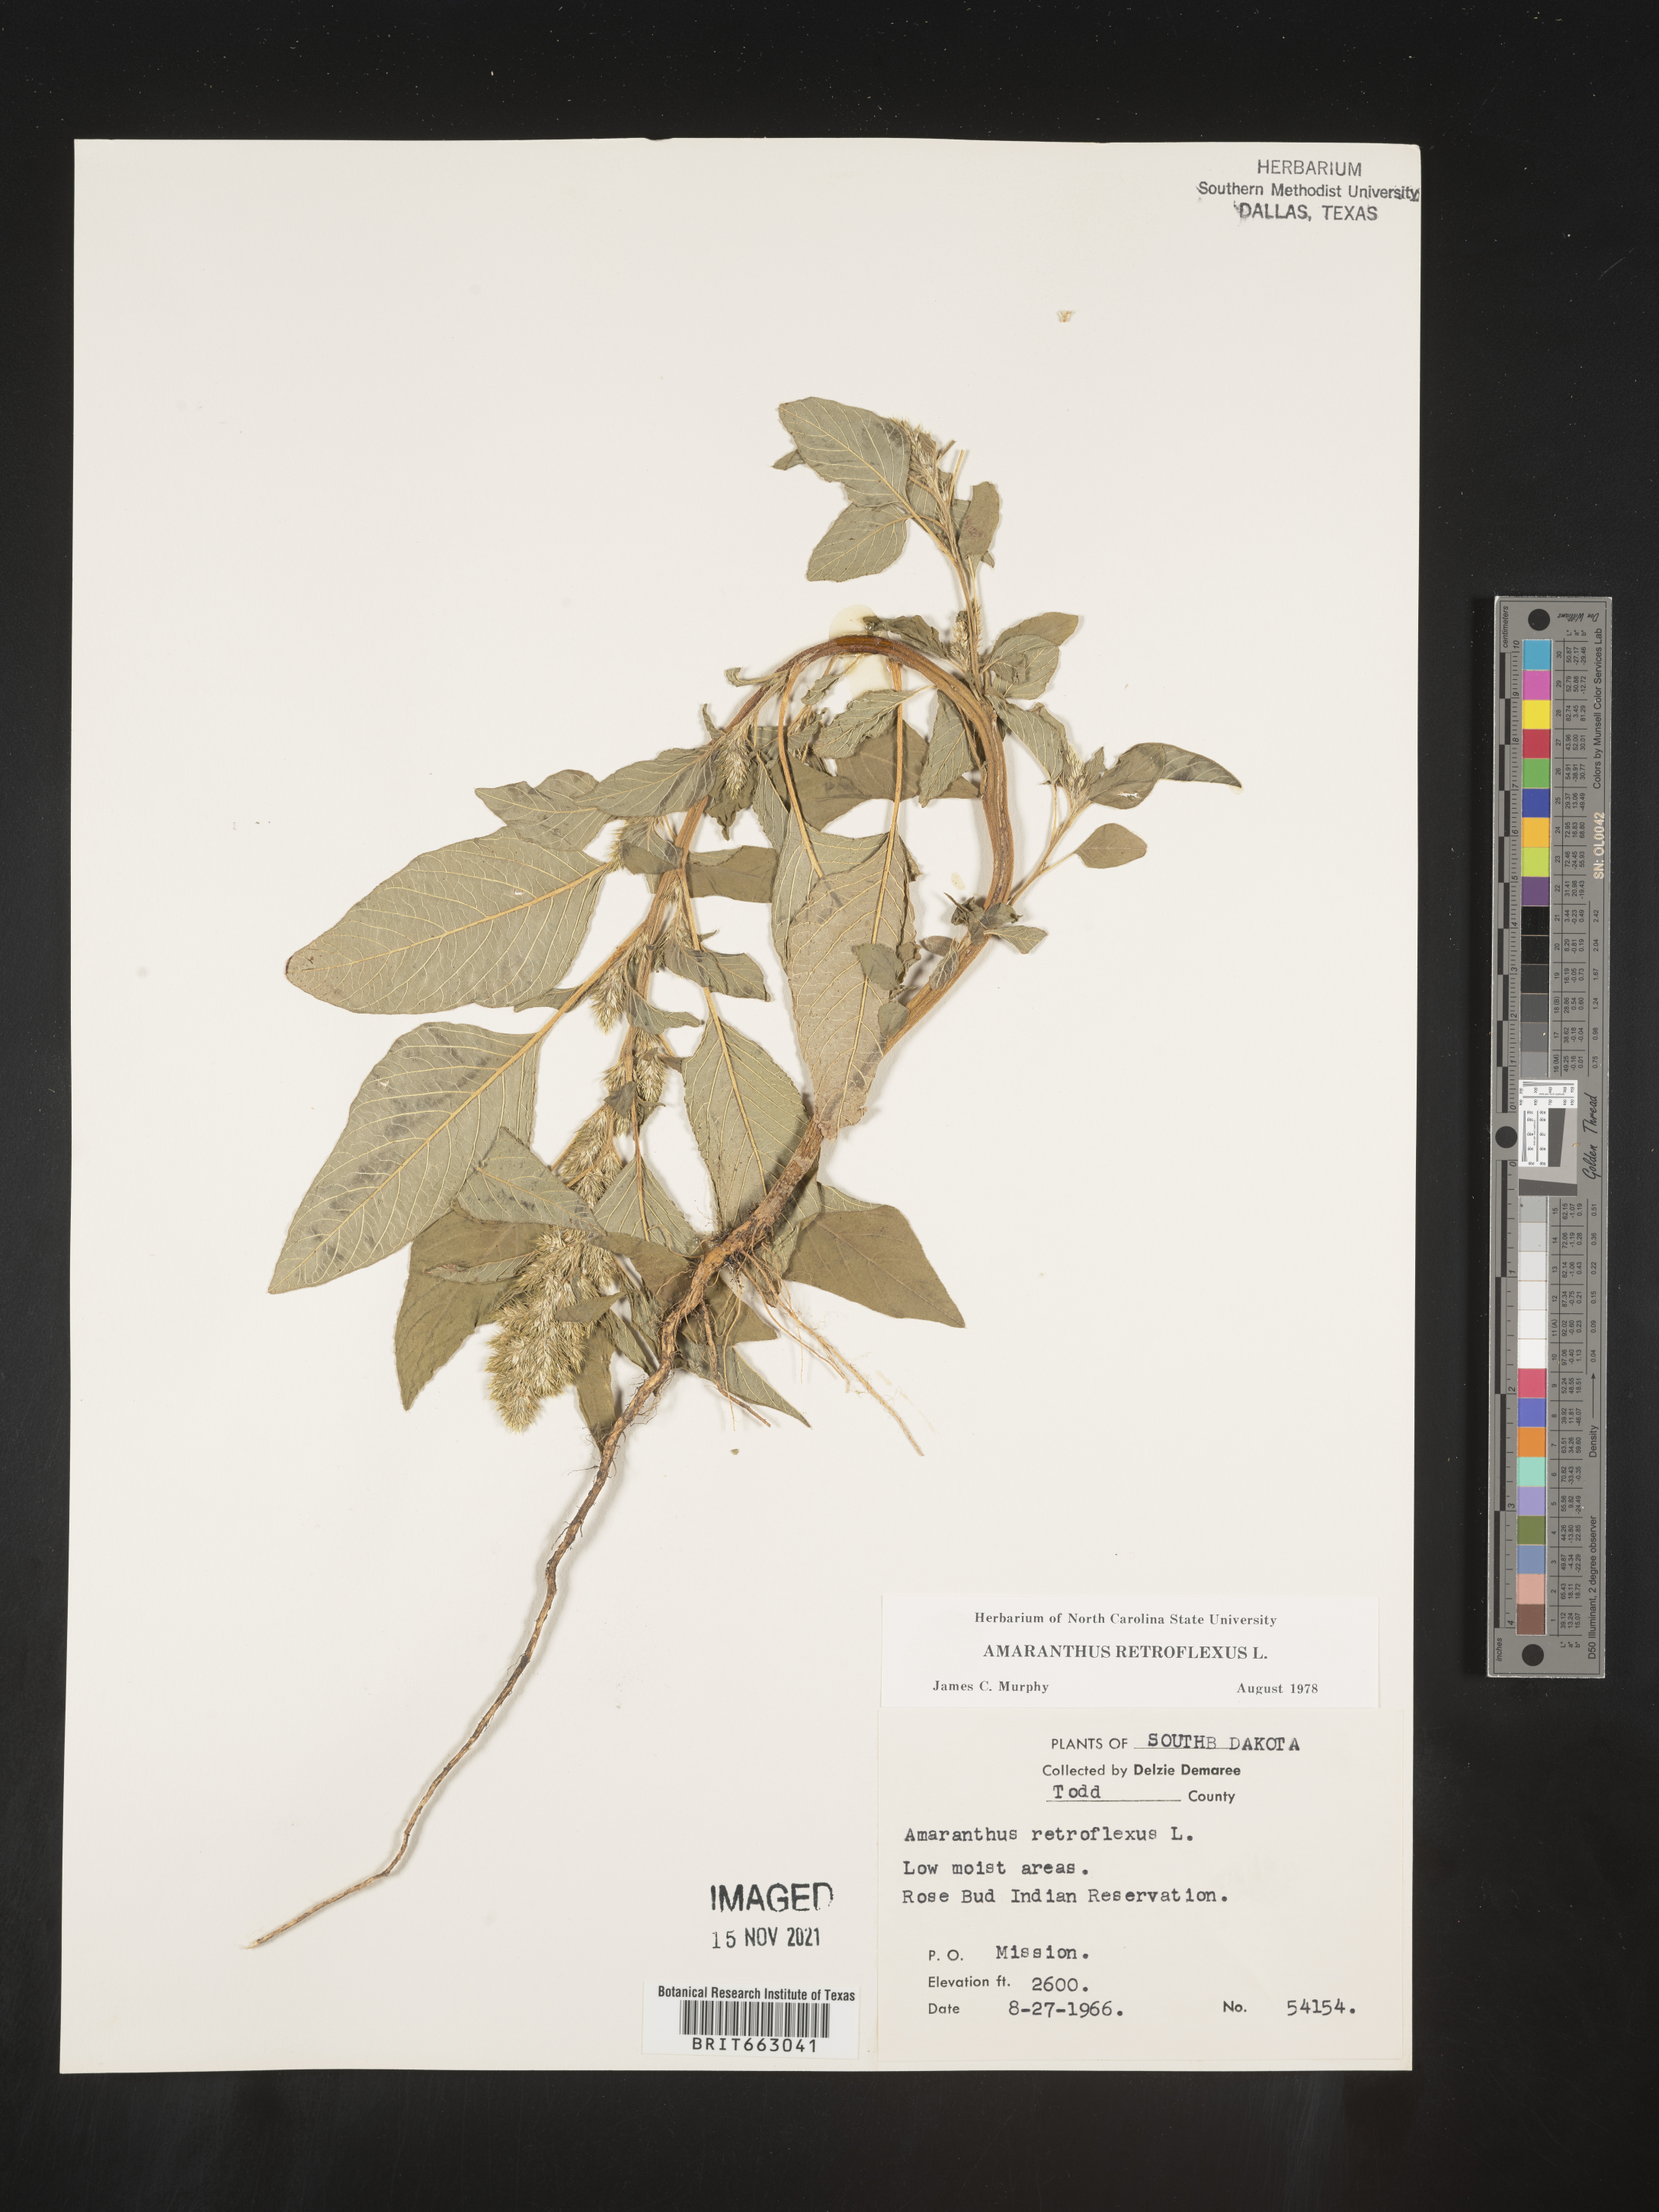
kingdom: Plantae
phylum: Tracheophyta
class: Magnoliopsida
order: Caryophyllales
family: Amaranthaceae
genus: Amaranthus
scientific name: Amaranthus retroflexus
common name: Redroot amaranth
